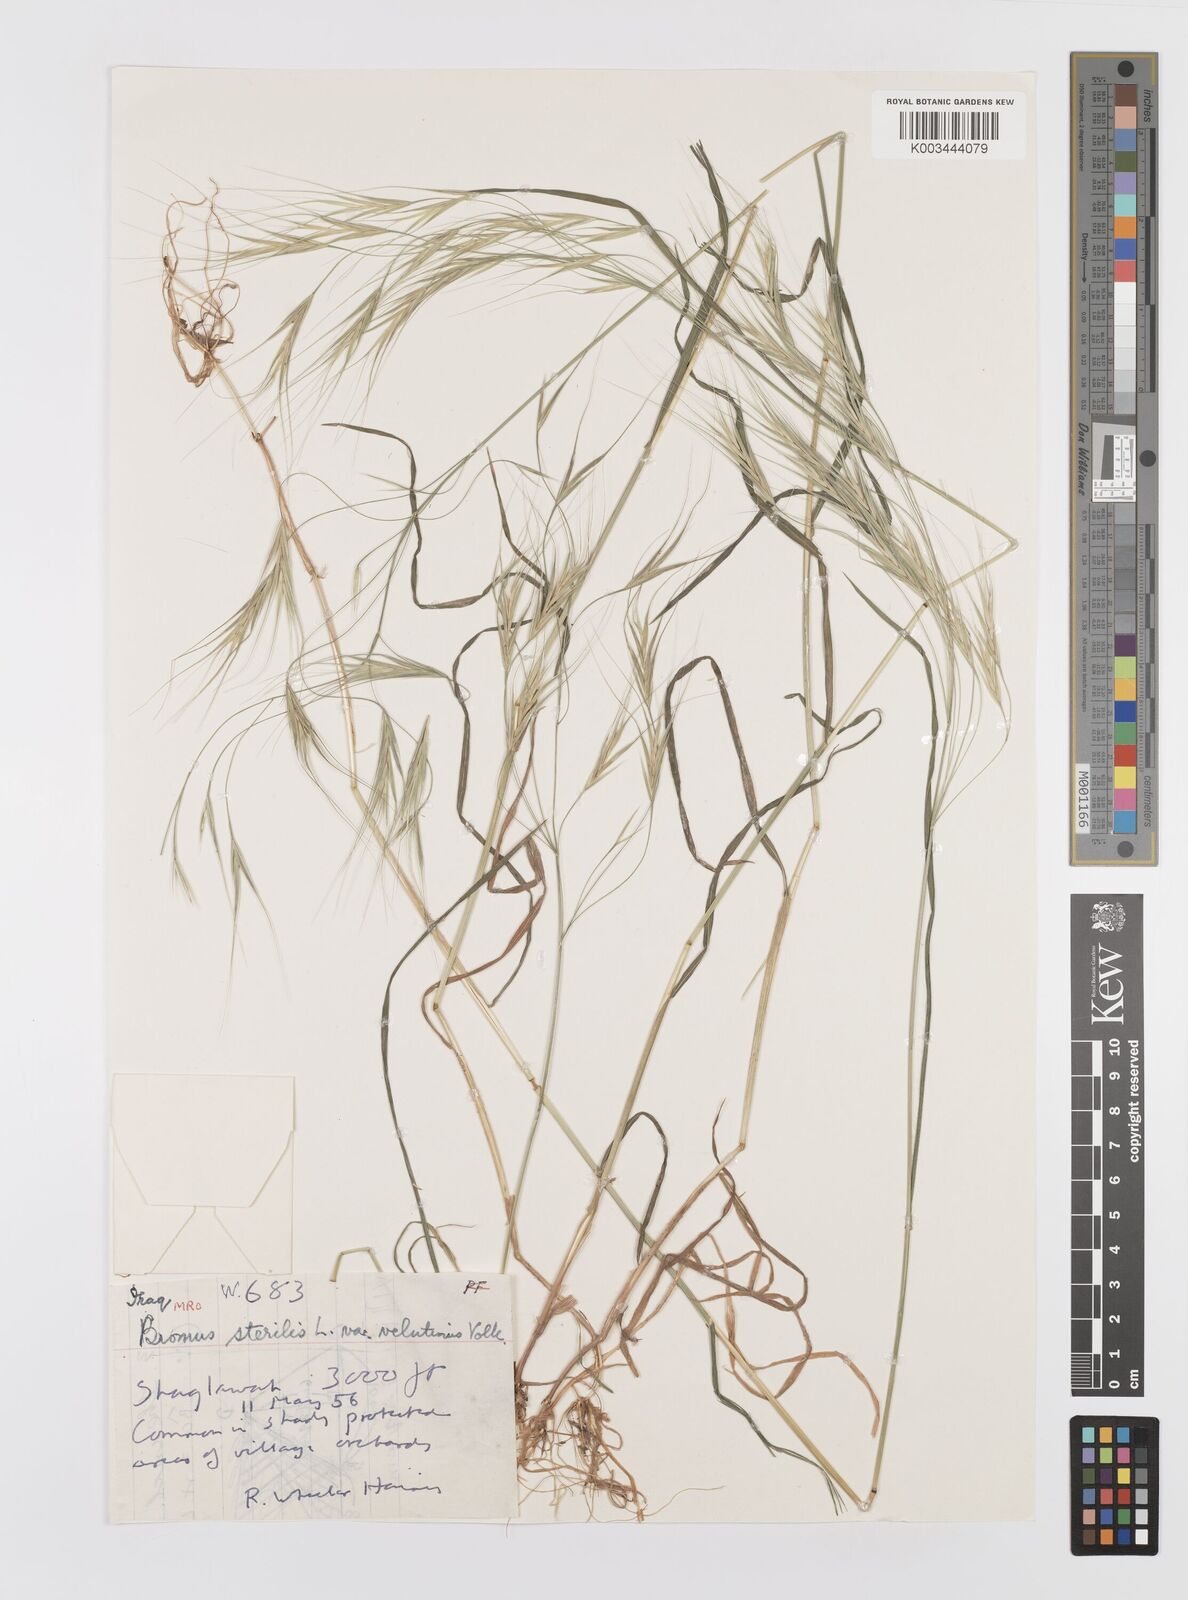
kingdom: Plantae
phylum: Tracheophyta
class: Liliopsida
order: Poales
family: Poaceae
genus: Bromus
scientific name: Bromus sterilis
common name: Poverty brome
